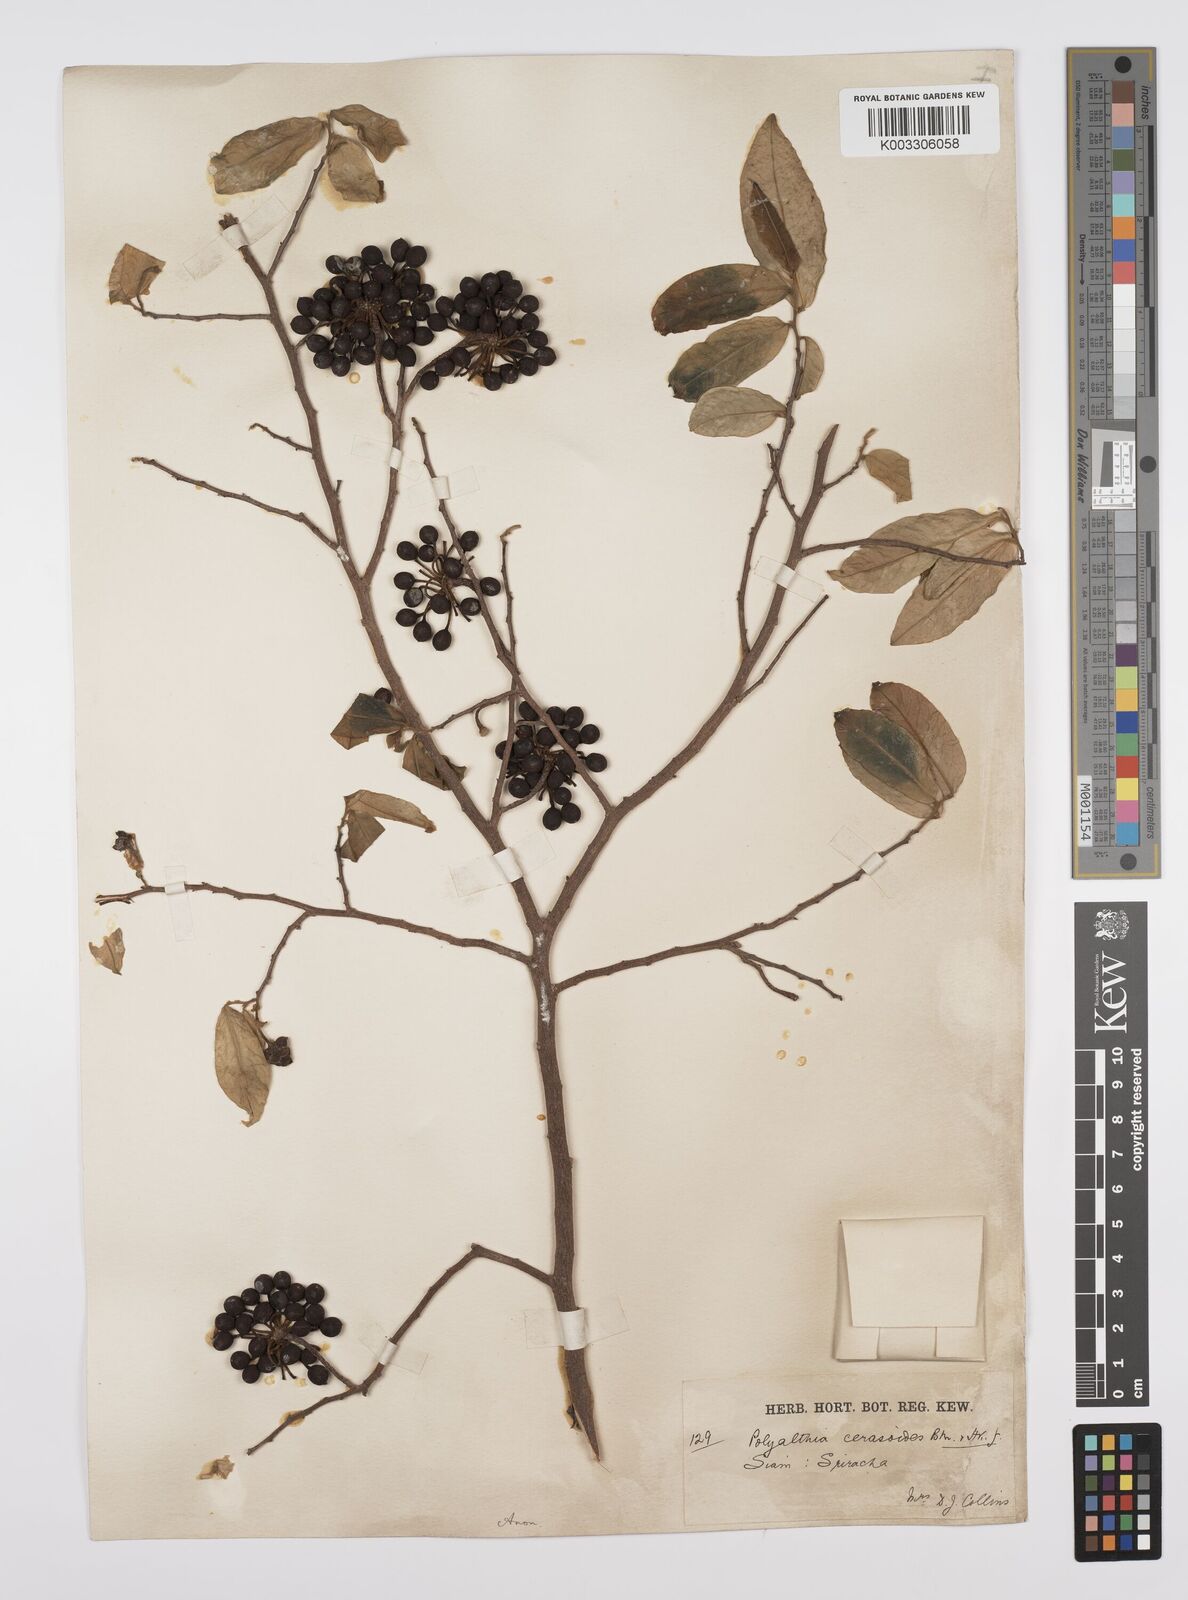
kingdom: Plantae
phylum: Tracheophyta
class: Magnoliopsida
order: Magnoliales
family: Annonaceae
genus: Hubera
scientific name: Hubera cerasoides
